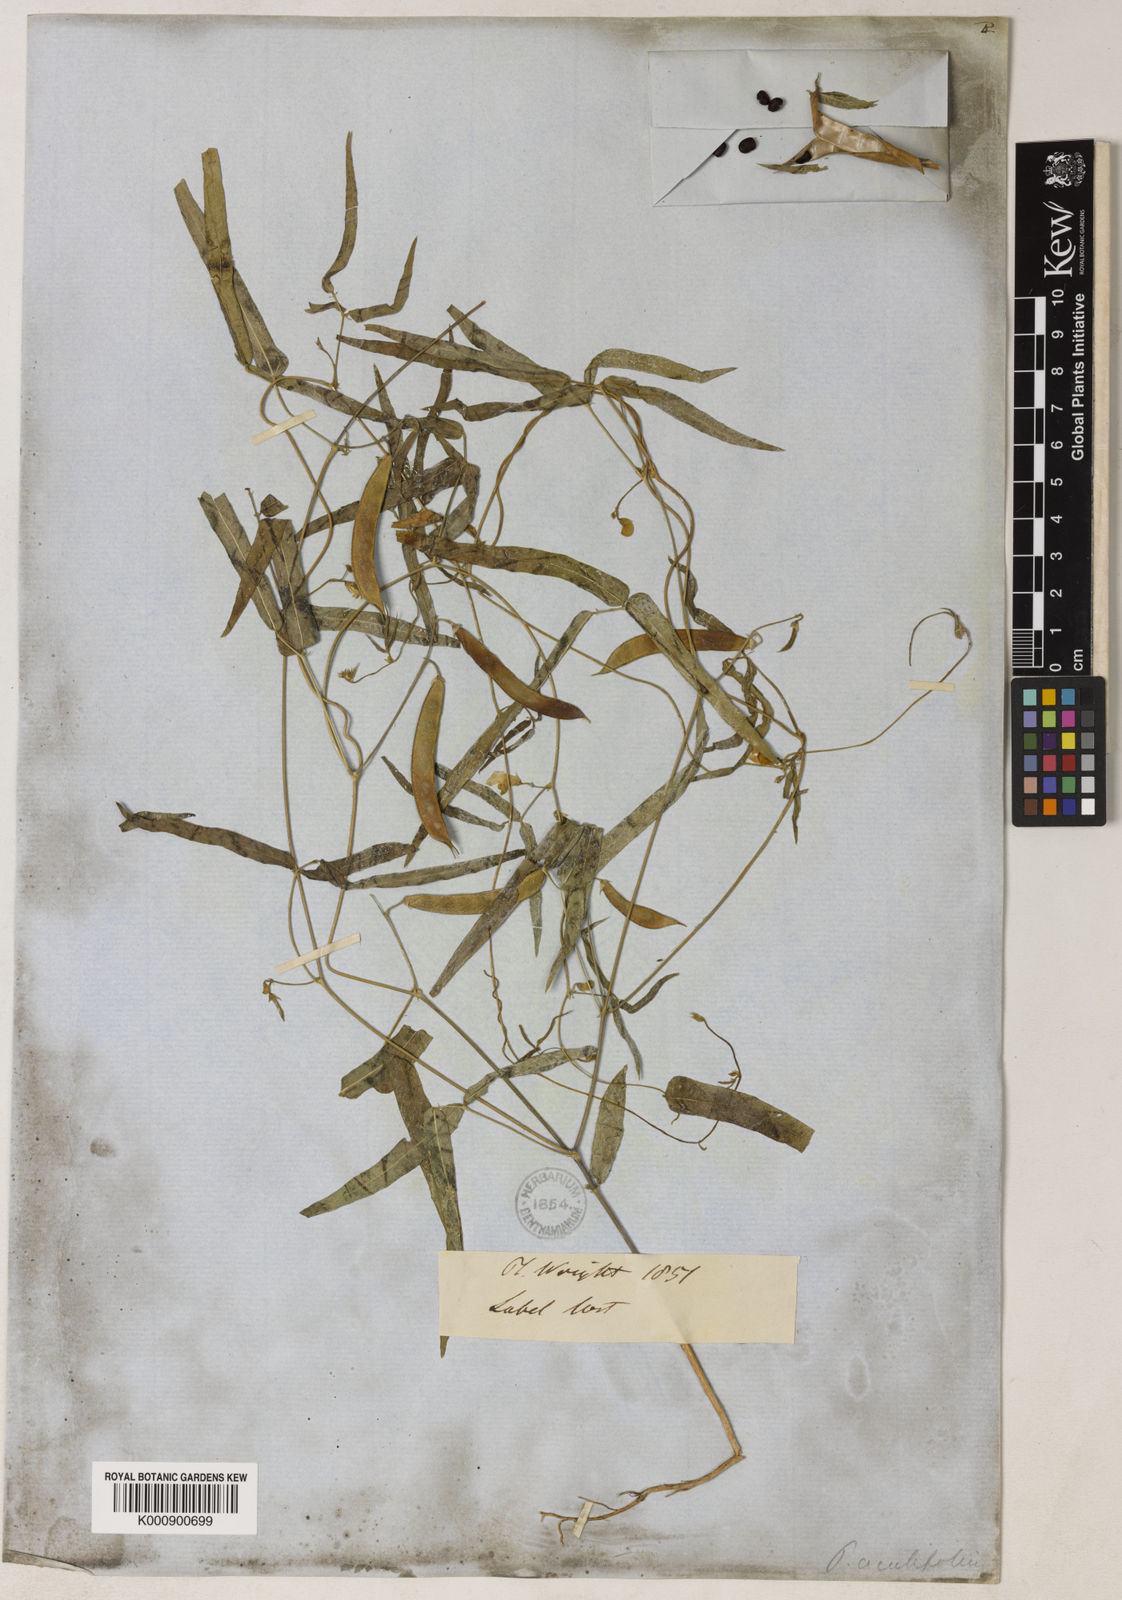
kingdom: Plantae
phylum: Tracheophyta
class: Magnoliopsida
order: Fabales
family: Fabaceae
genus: Phaseolus
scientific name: Phaseolus acutifolius
